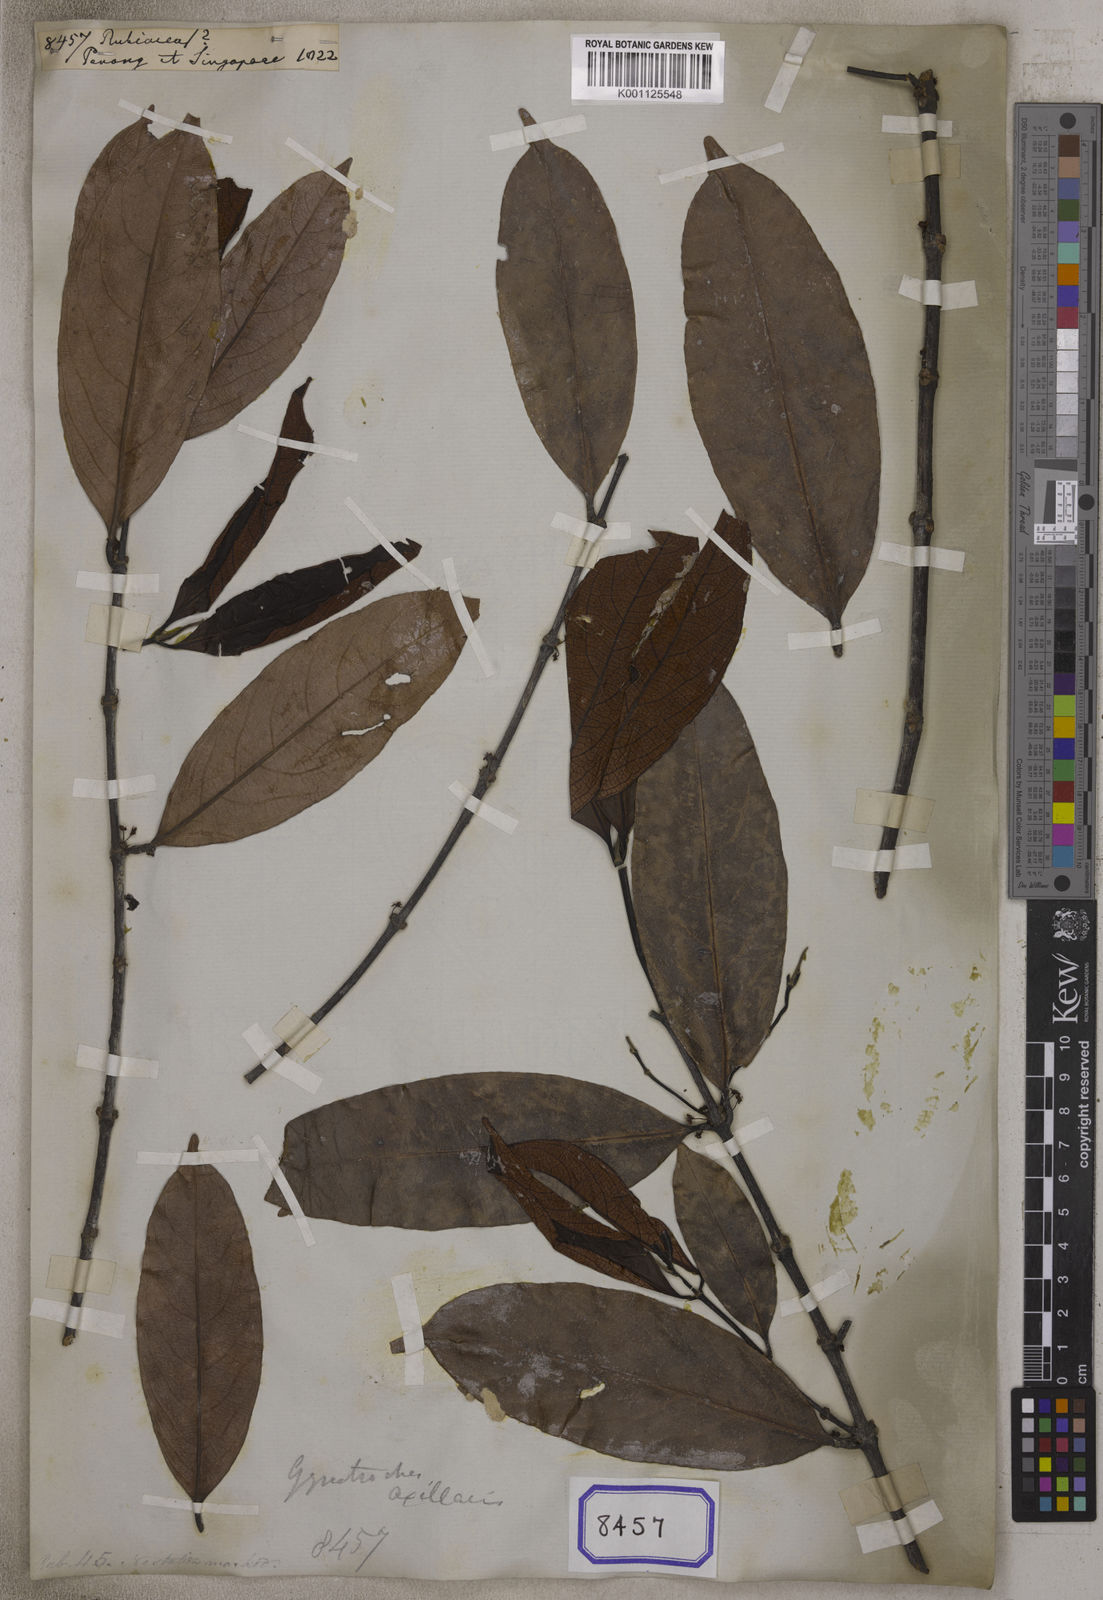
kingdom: Plantae
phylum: Tracheophyta
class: Magnoliopsida
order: Gentianales
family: Rubiaceae
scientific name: Rubiaceae
